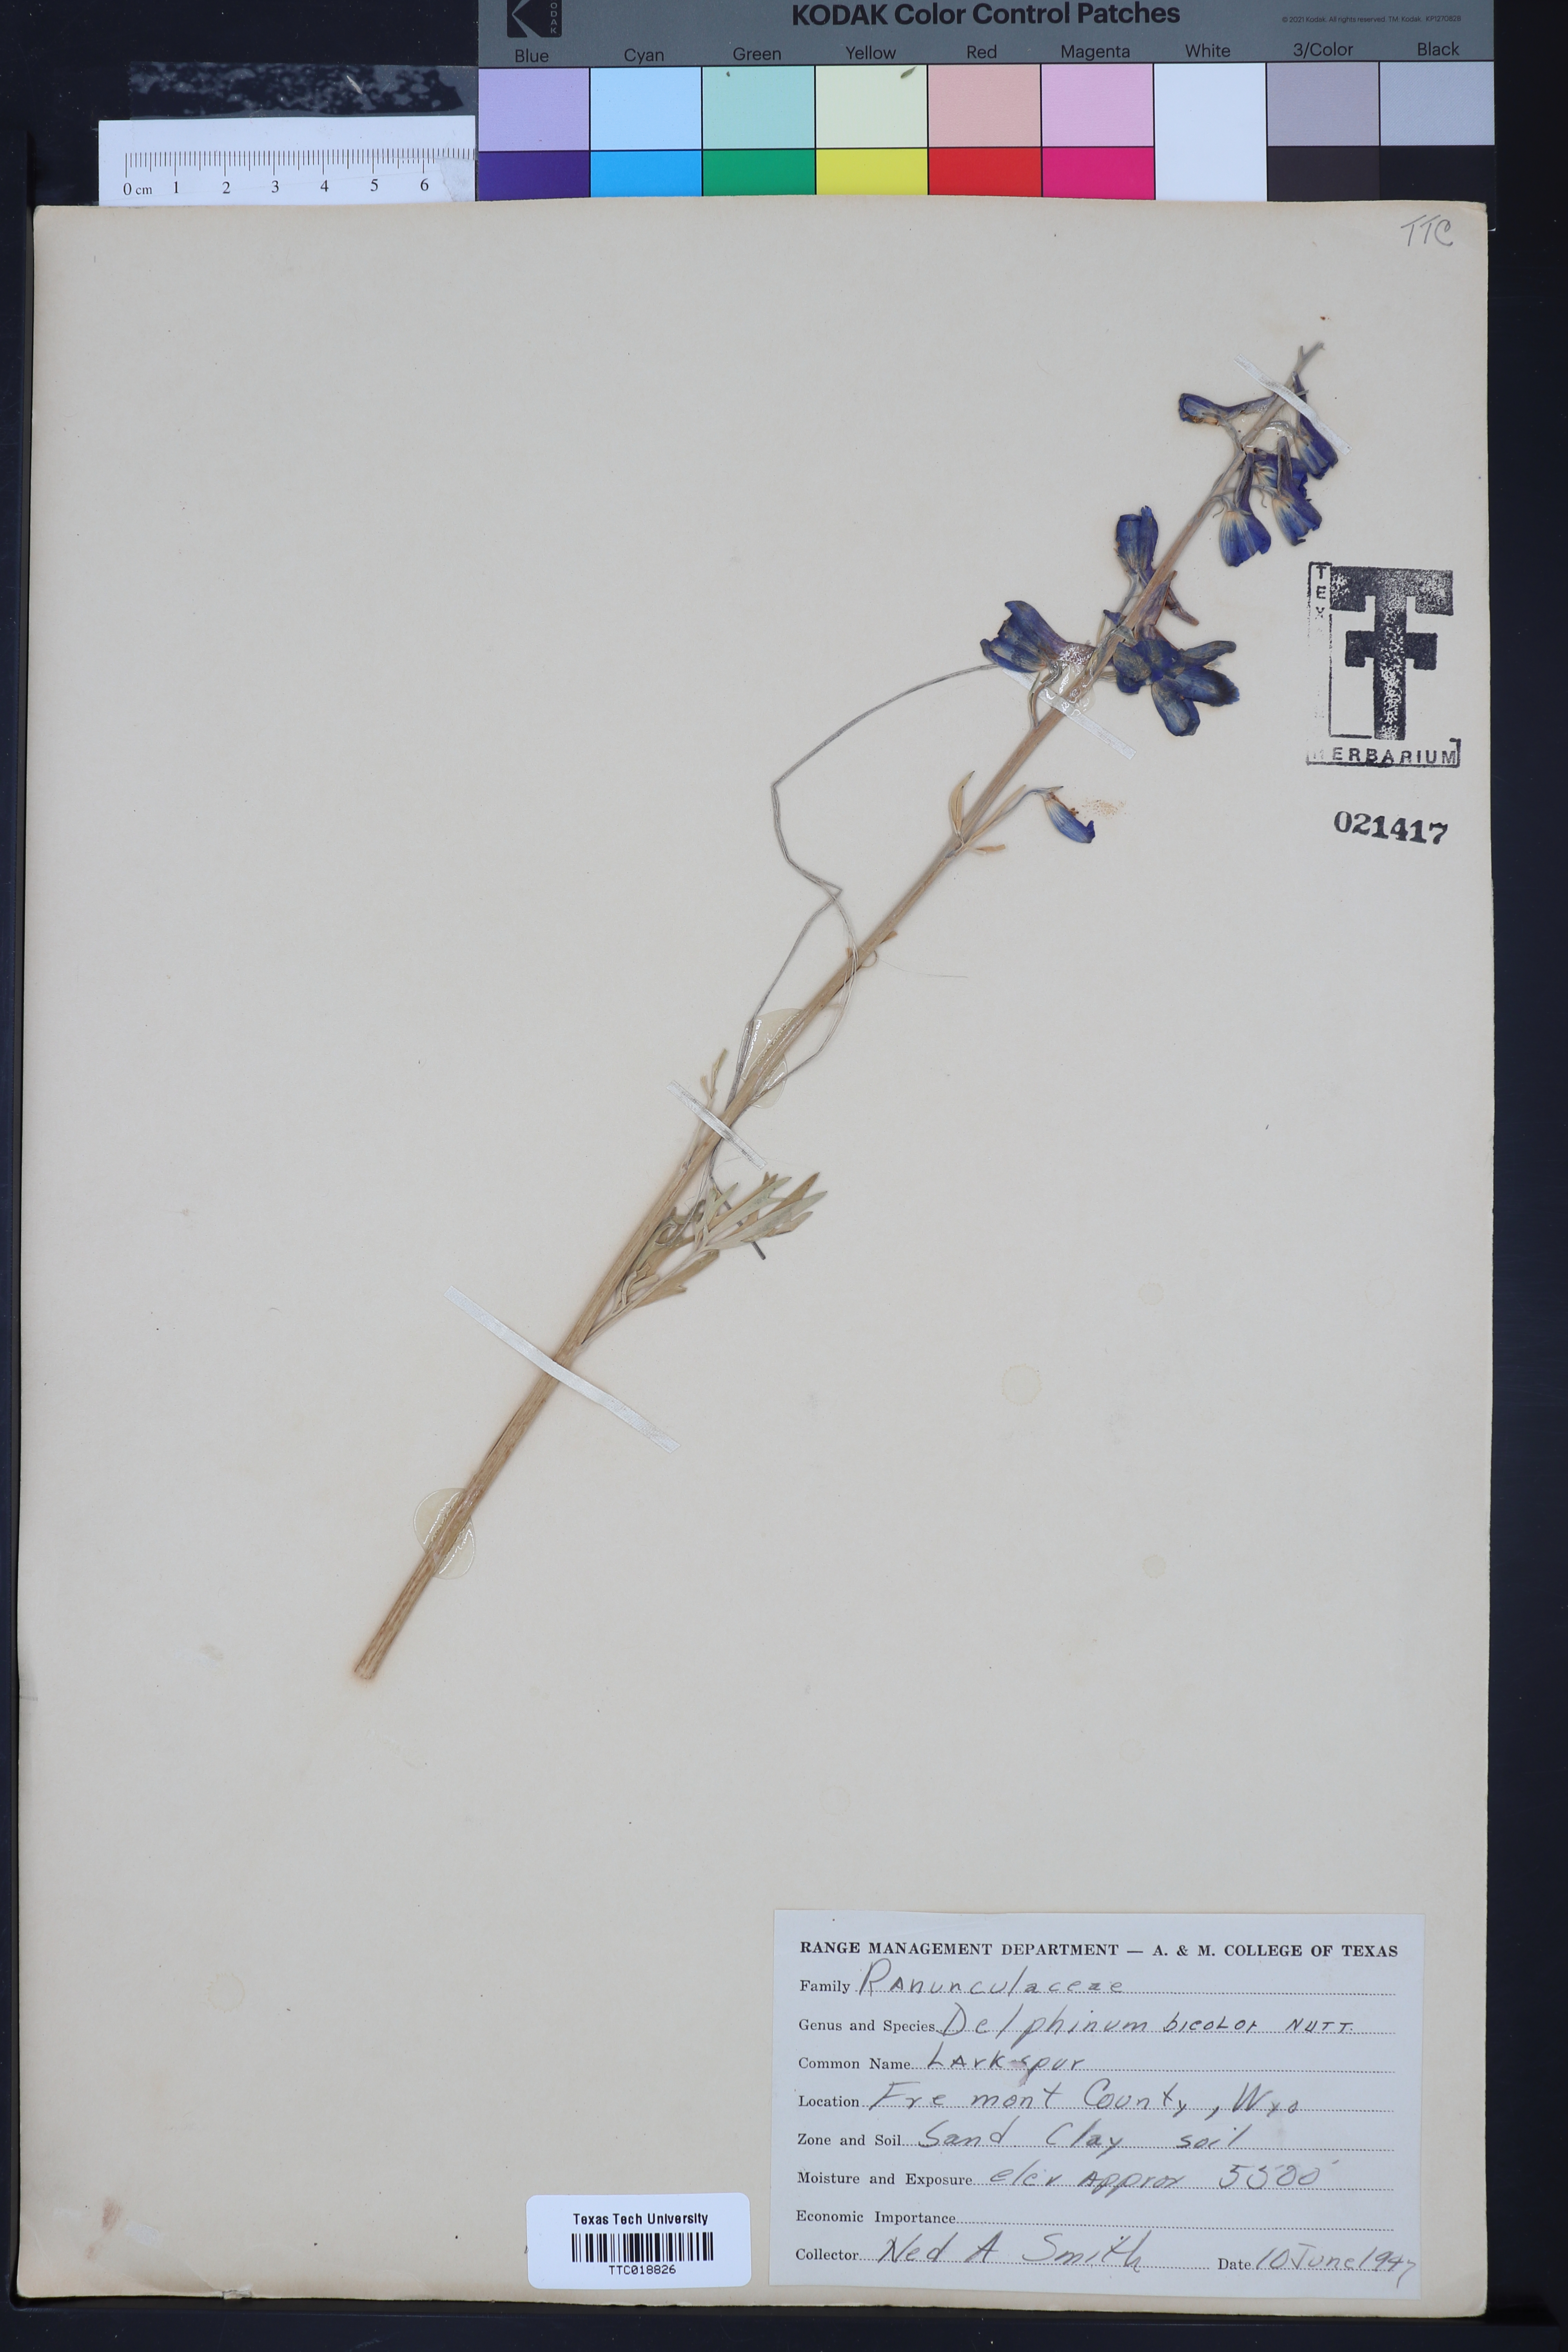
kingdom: Plantae
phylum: Tracheophyta
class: Magnoliopsida
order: Ranunculales
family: Ranunculaceae
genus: Delphinium
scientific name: Delphinium bicolor
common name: Low larkspur
